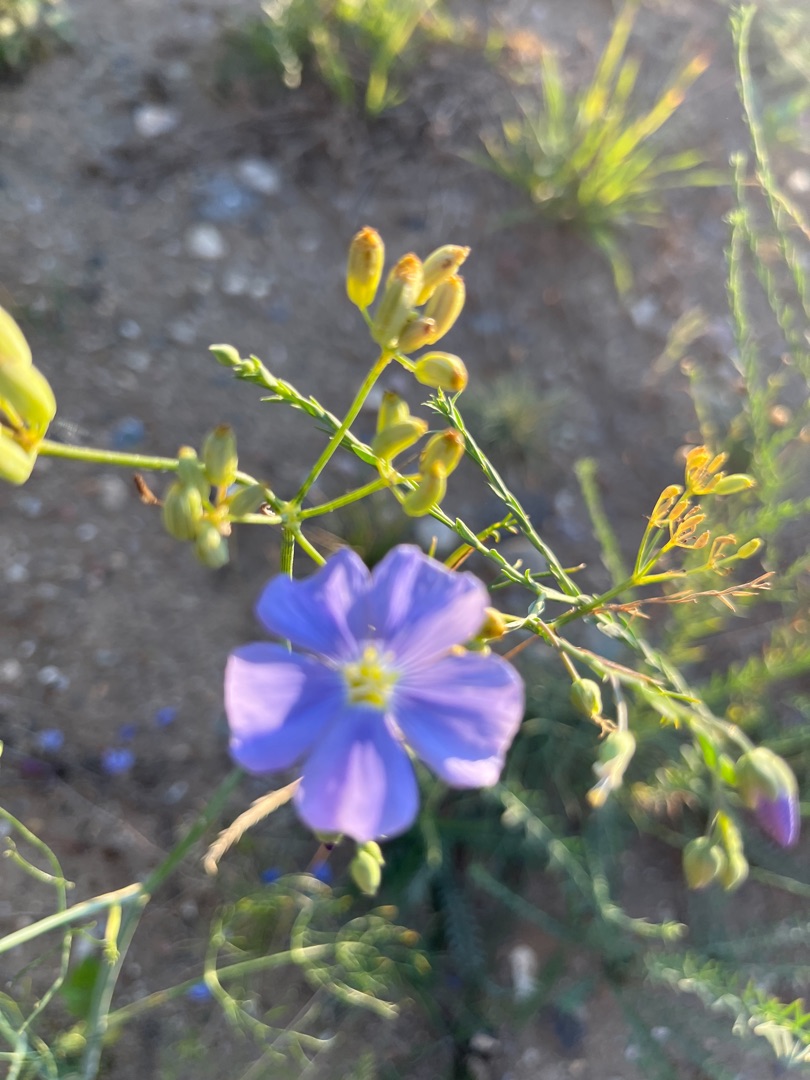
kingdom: Plantae
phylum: Tracheophyta
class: Magnoliopsida
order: Malpighiales
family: Linaceae
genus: Linum
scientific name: Linum austriacum
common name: Østrigsk hør
